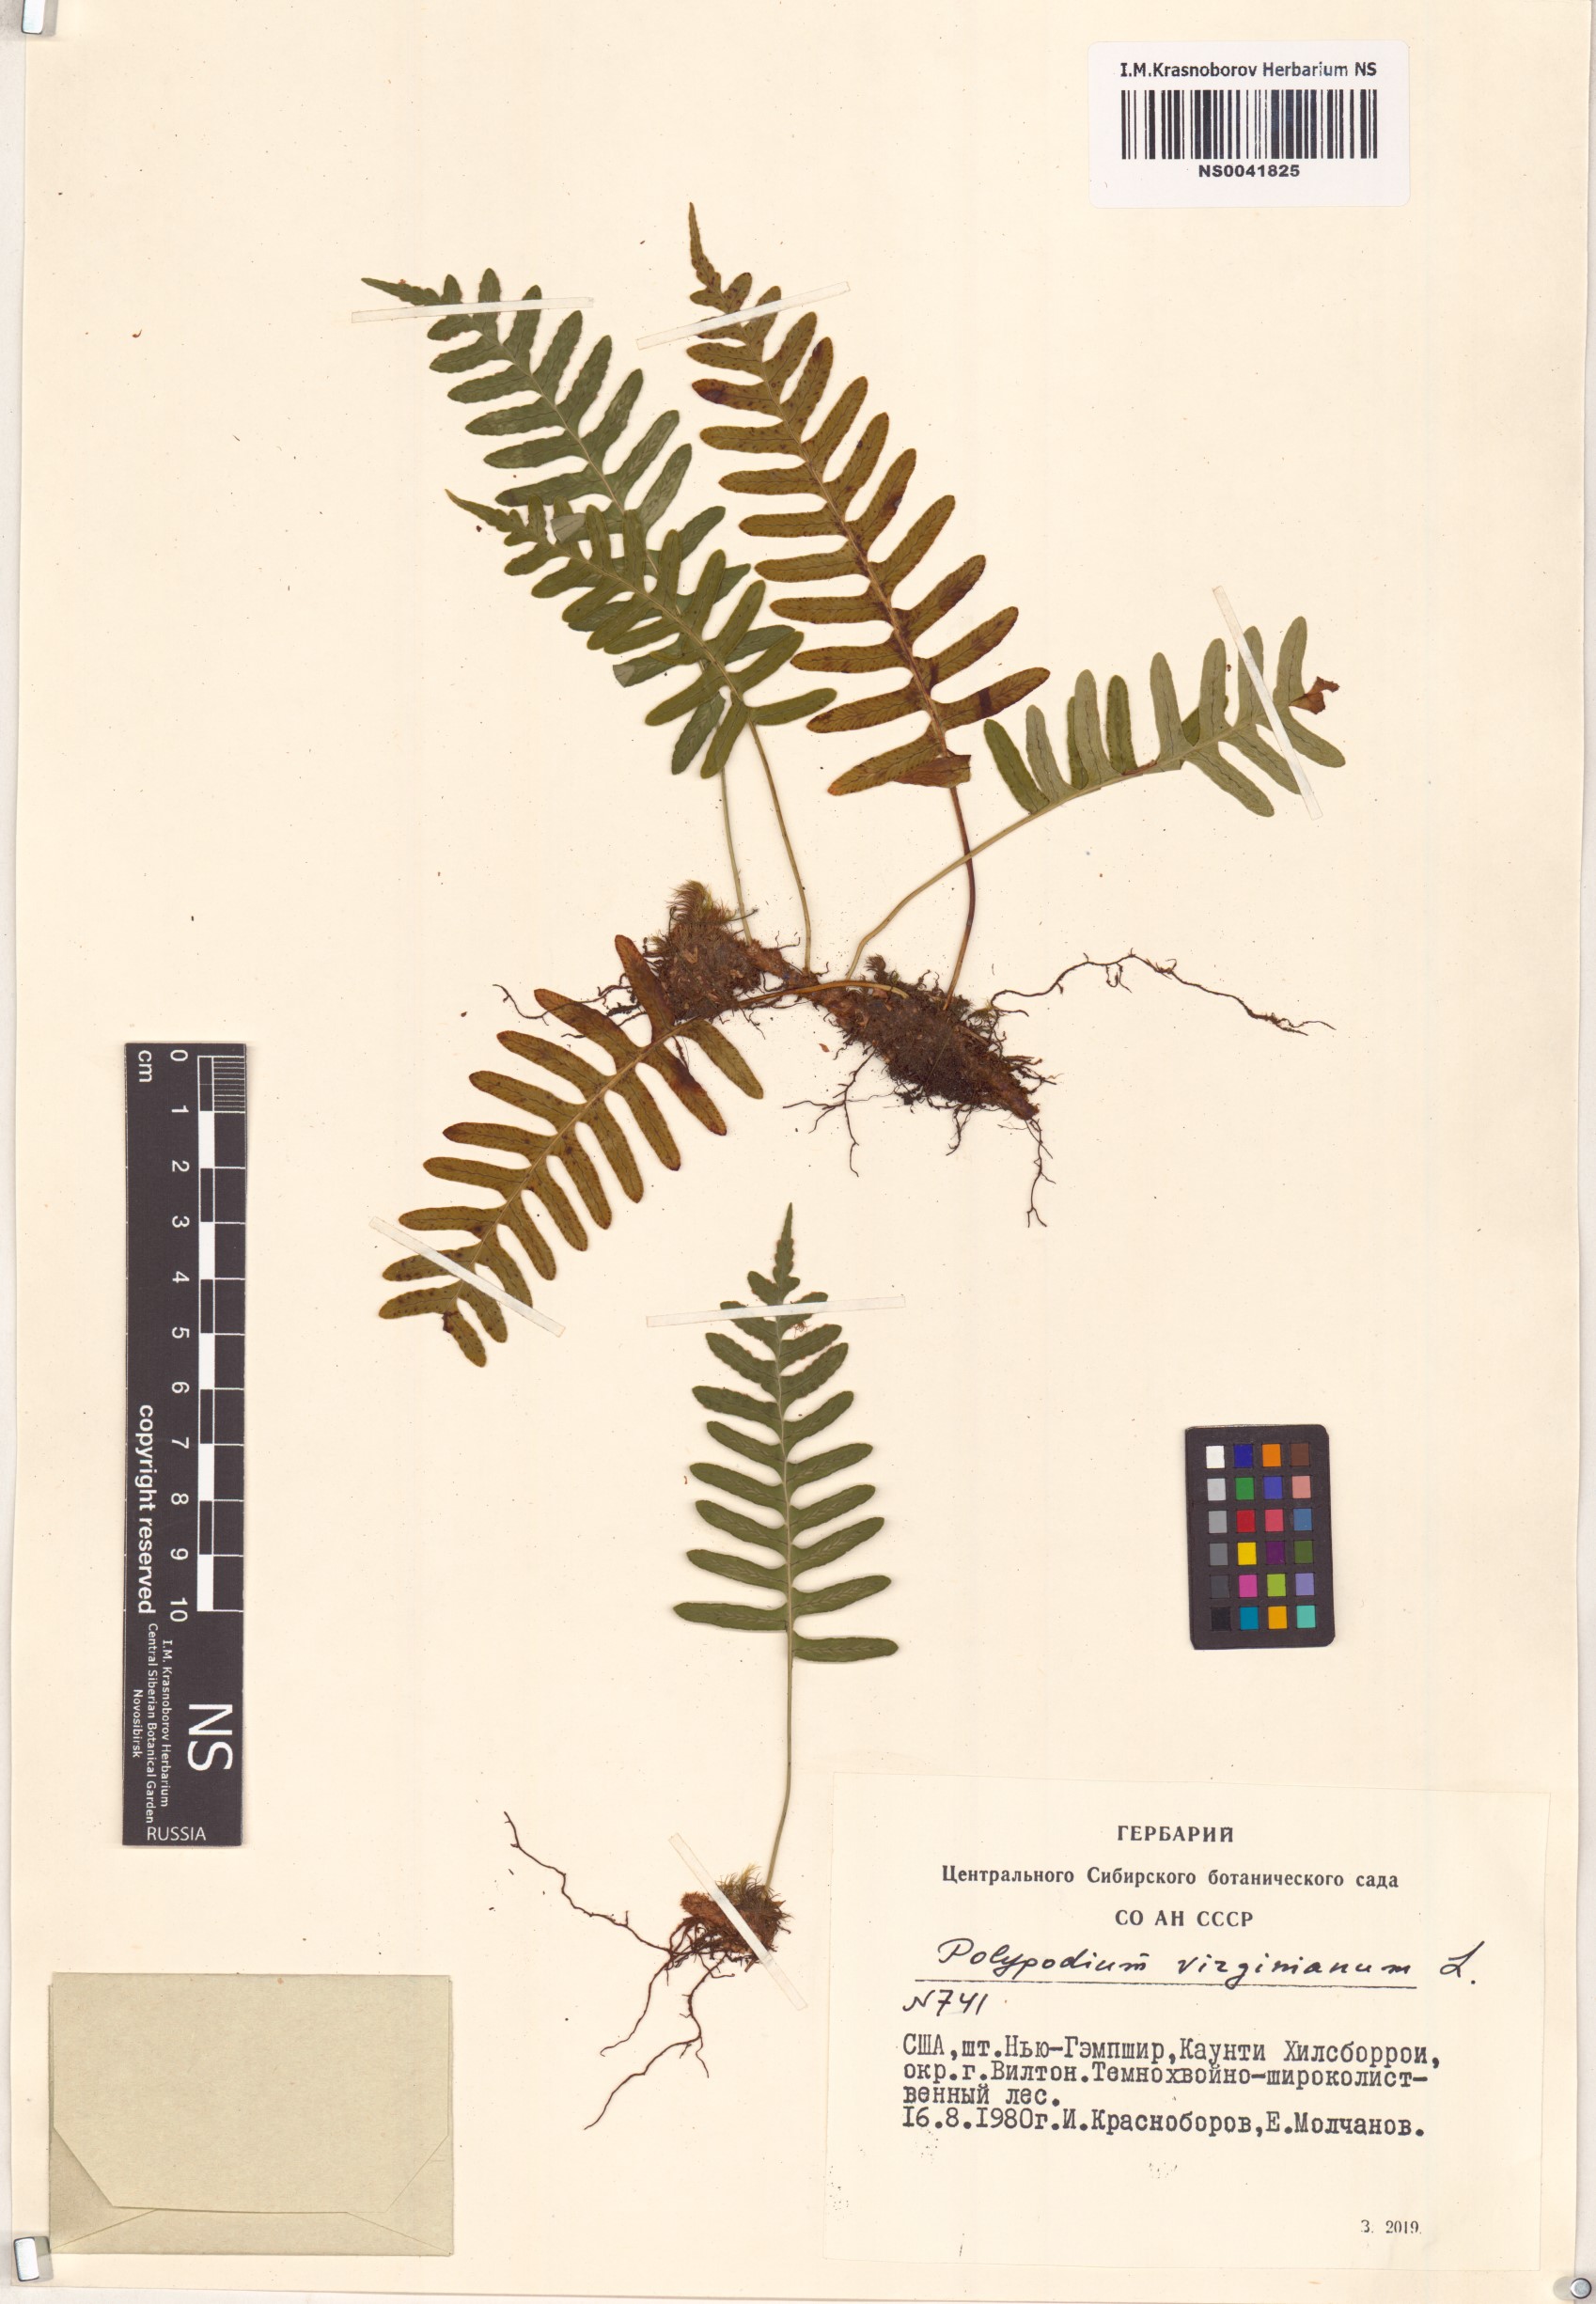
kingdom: Plantae
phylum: Tracheophyta
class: Polypodiopsida
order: Polypodiales
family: Polypodiaceae
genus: Polypodium
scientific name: Polypodium virginianum
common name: American wall fern
